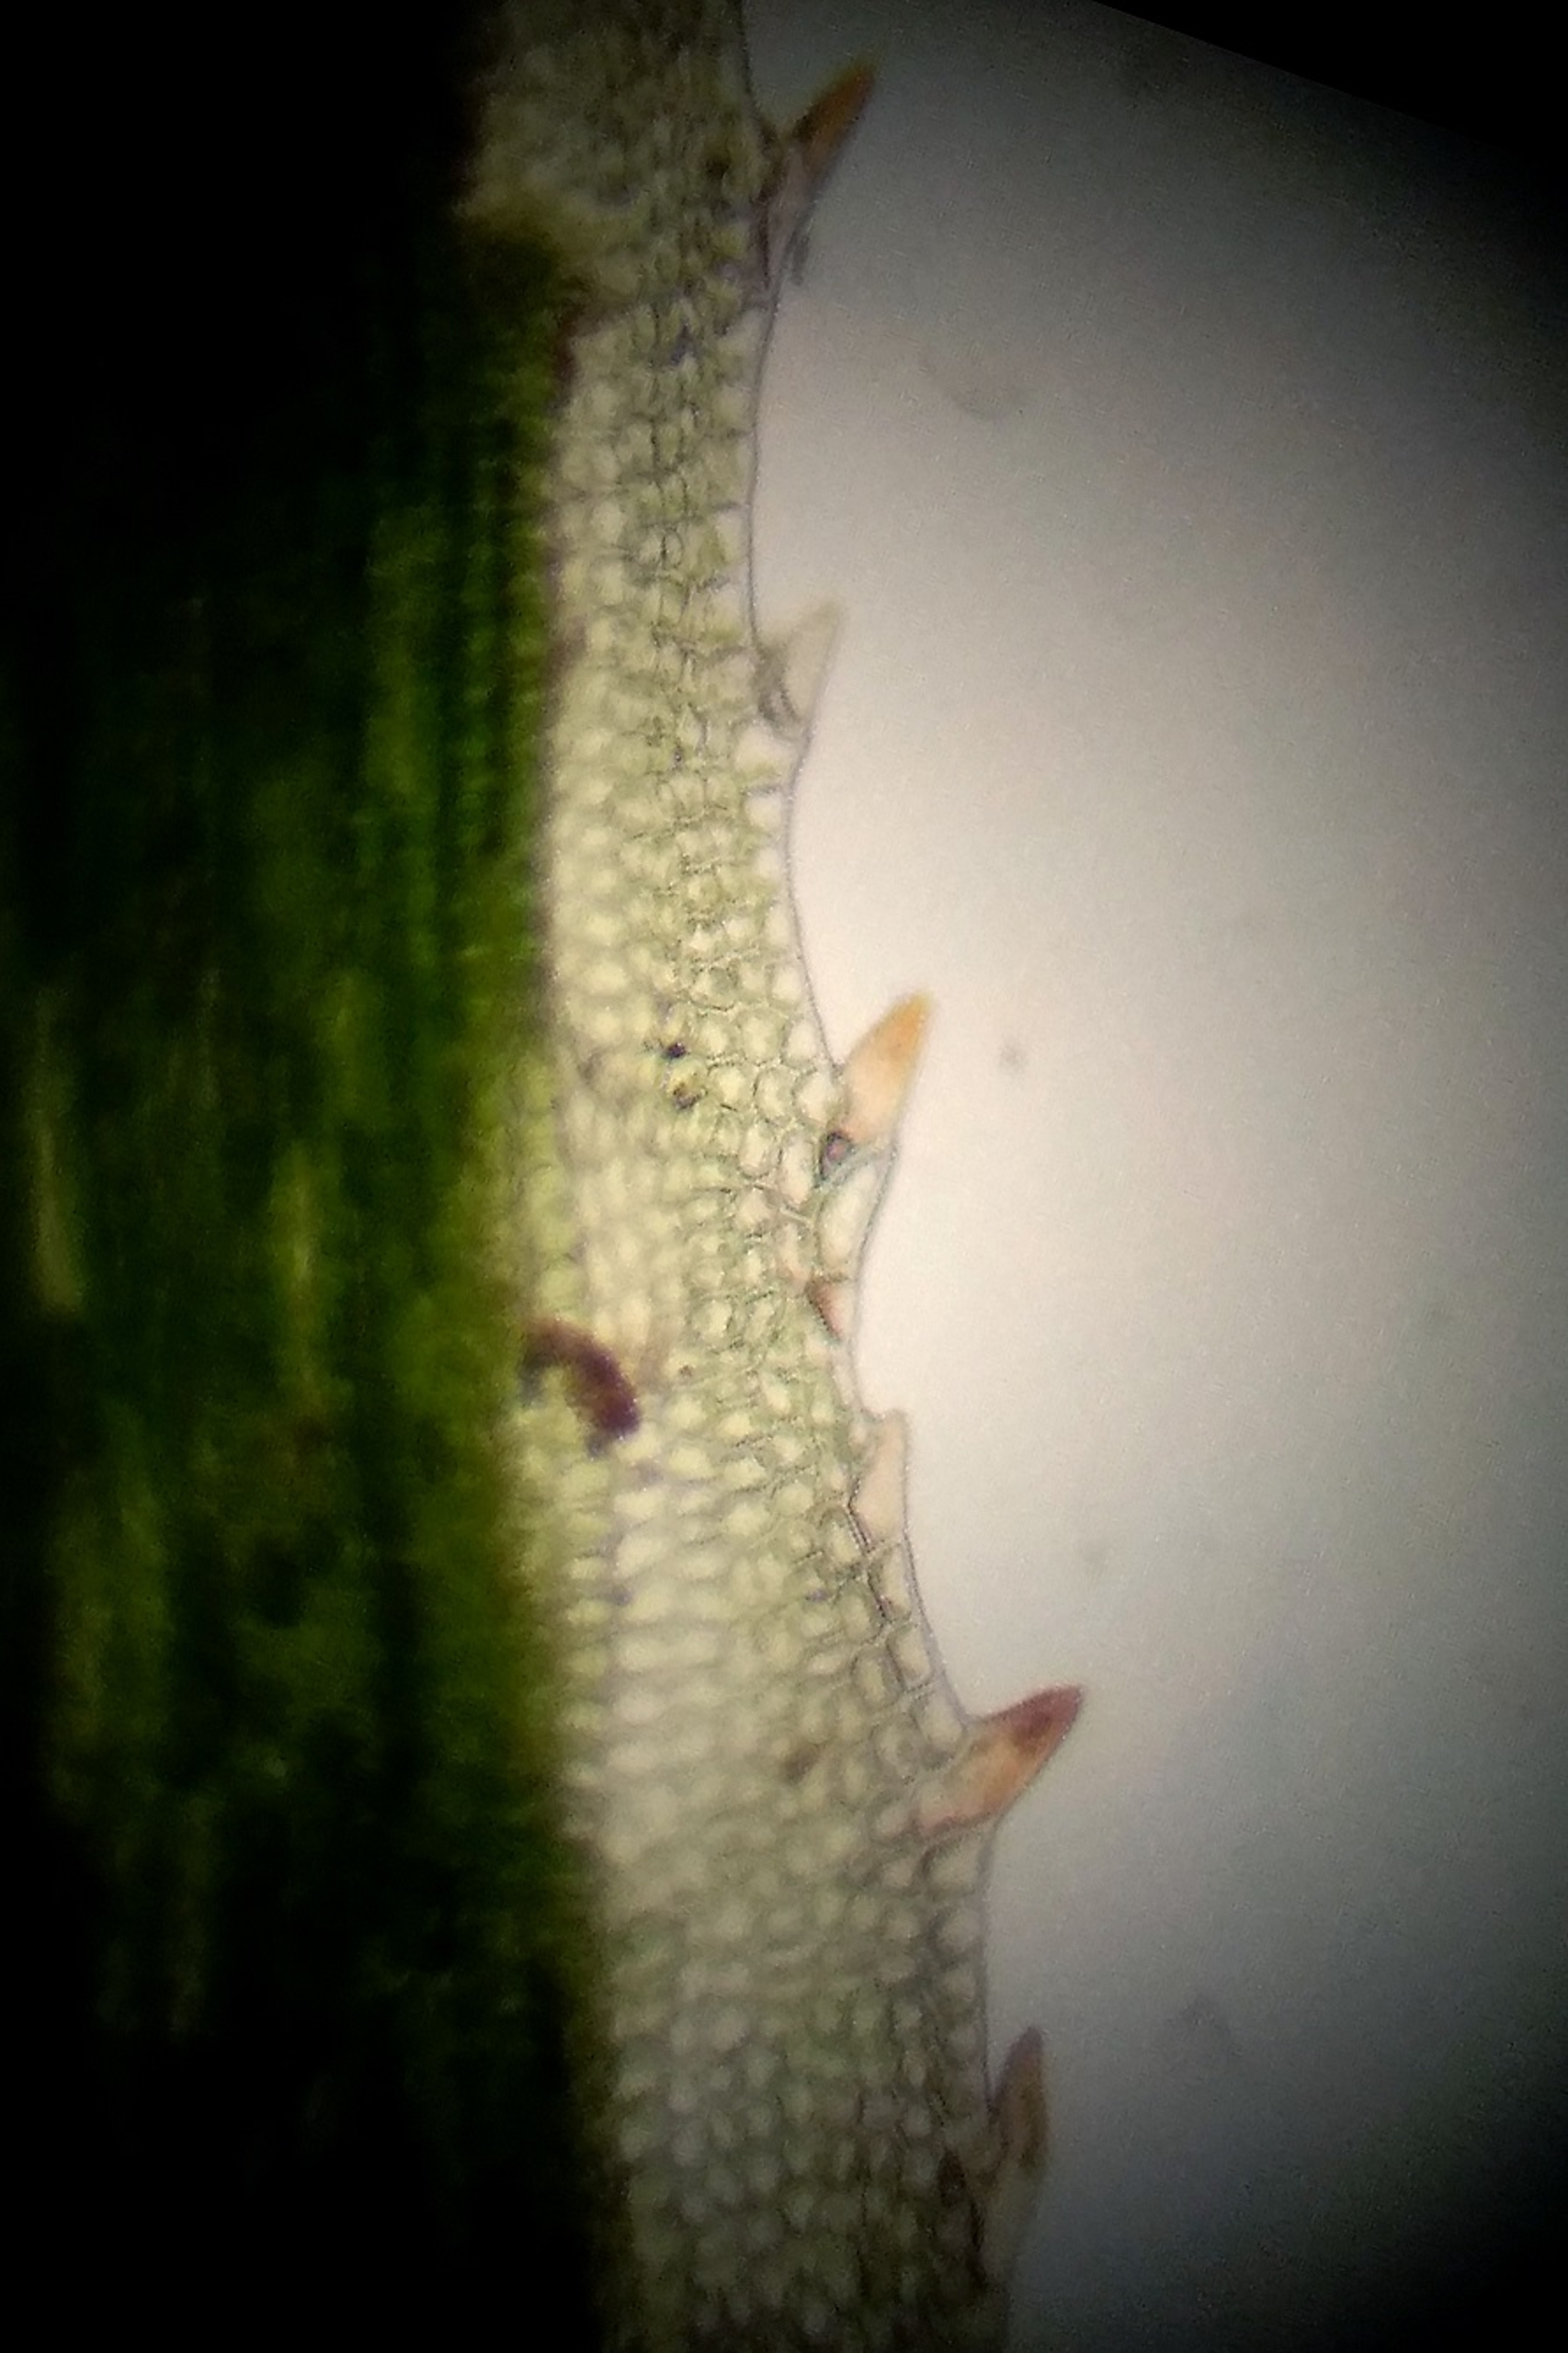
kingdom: Plantae
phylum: Bryophyta
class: Polytrichopsida
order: Polytrichales
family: Polytrichaceae
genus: Polytrichum
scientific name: Polytrichum longisetum
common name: Mose-jomfruhår
